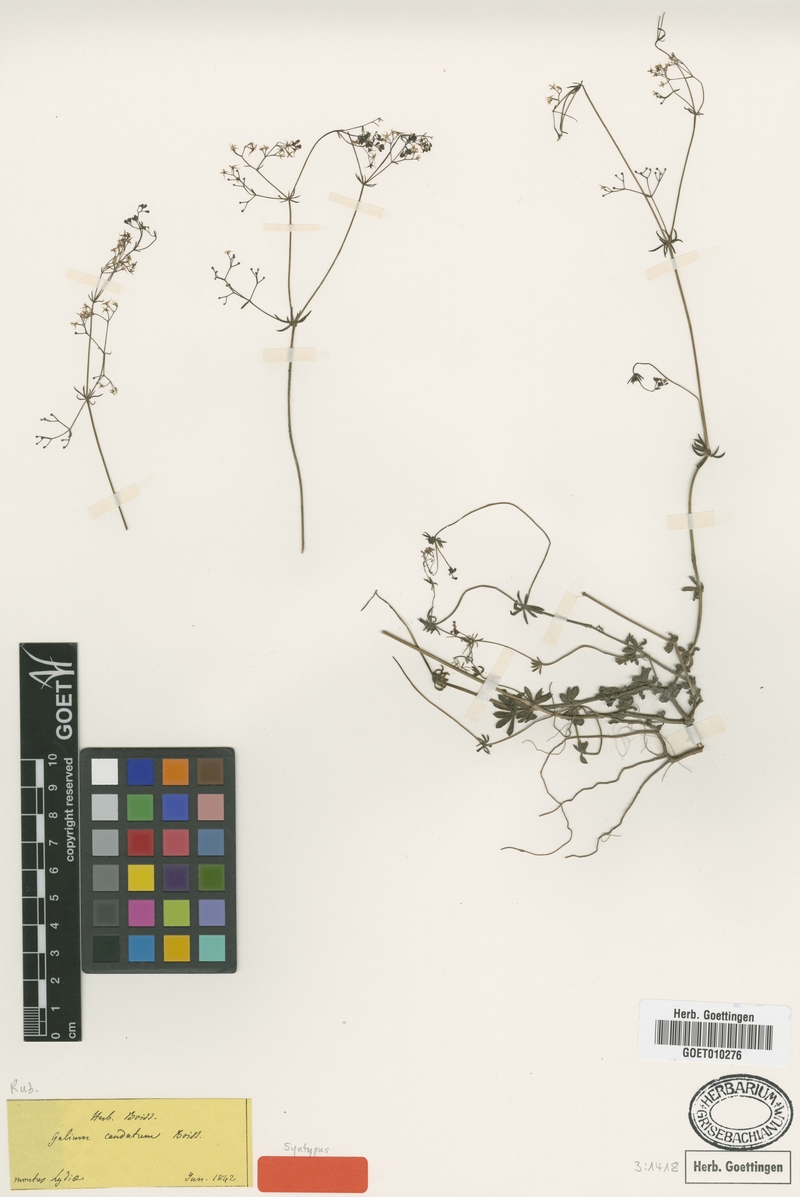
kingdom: Plantae
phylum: Tracheophyta
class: Magnoliopsida
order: Gentianales
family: Rubiaceae
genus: Galium
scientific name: Galium brevifolium
